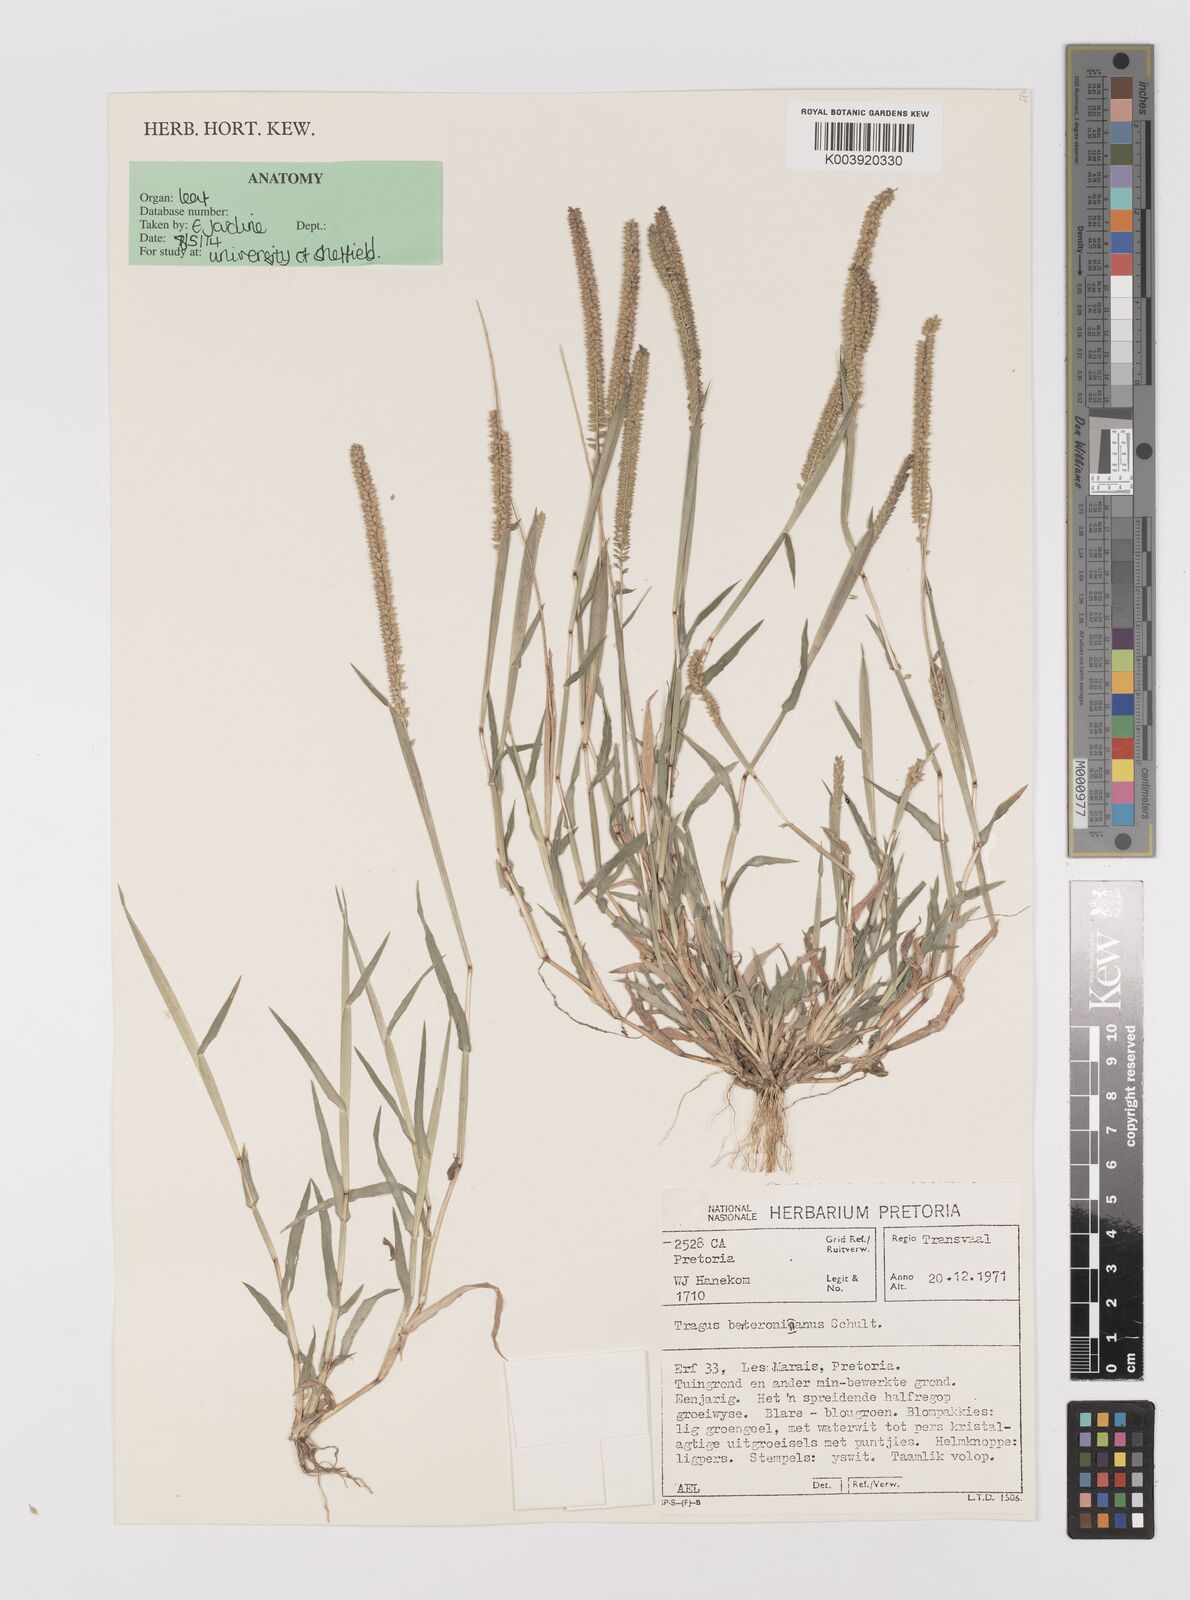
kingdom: Plantae
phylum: Tracheophyta
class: Liliopsida
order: Poales
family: Poaceae
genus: Tragus
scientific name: Tragus berteronianus
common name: African bur-grass
